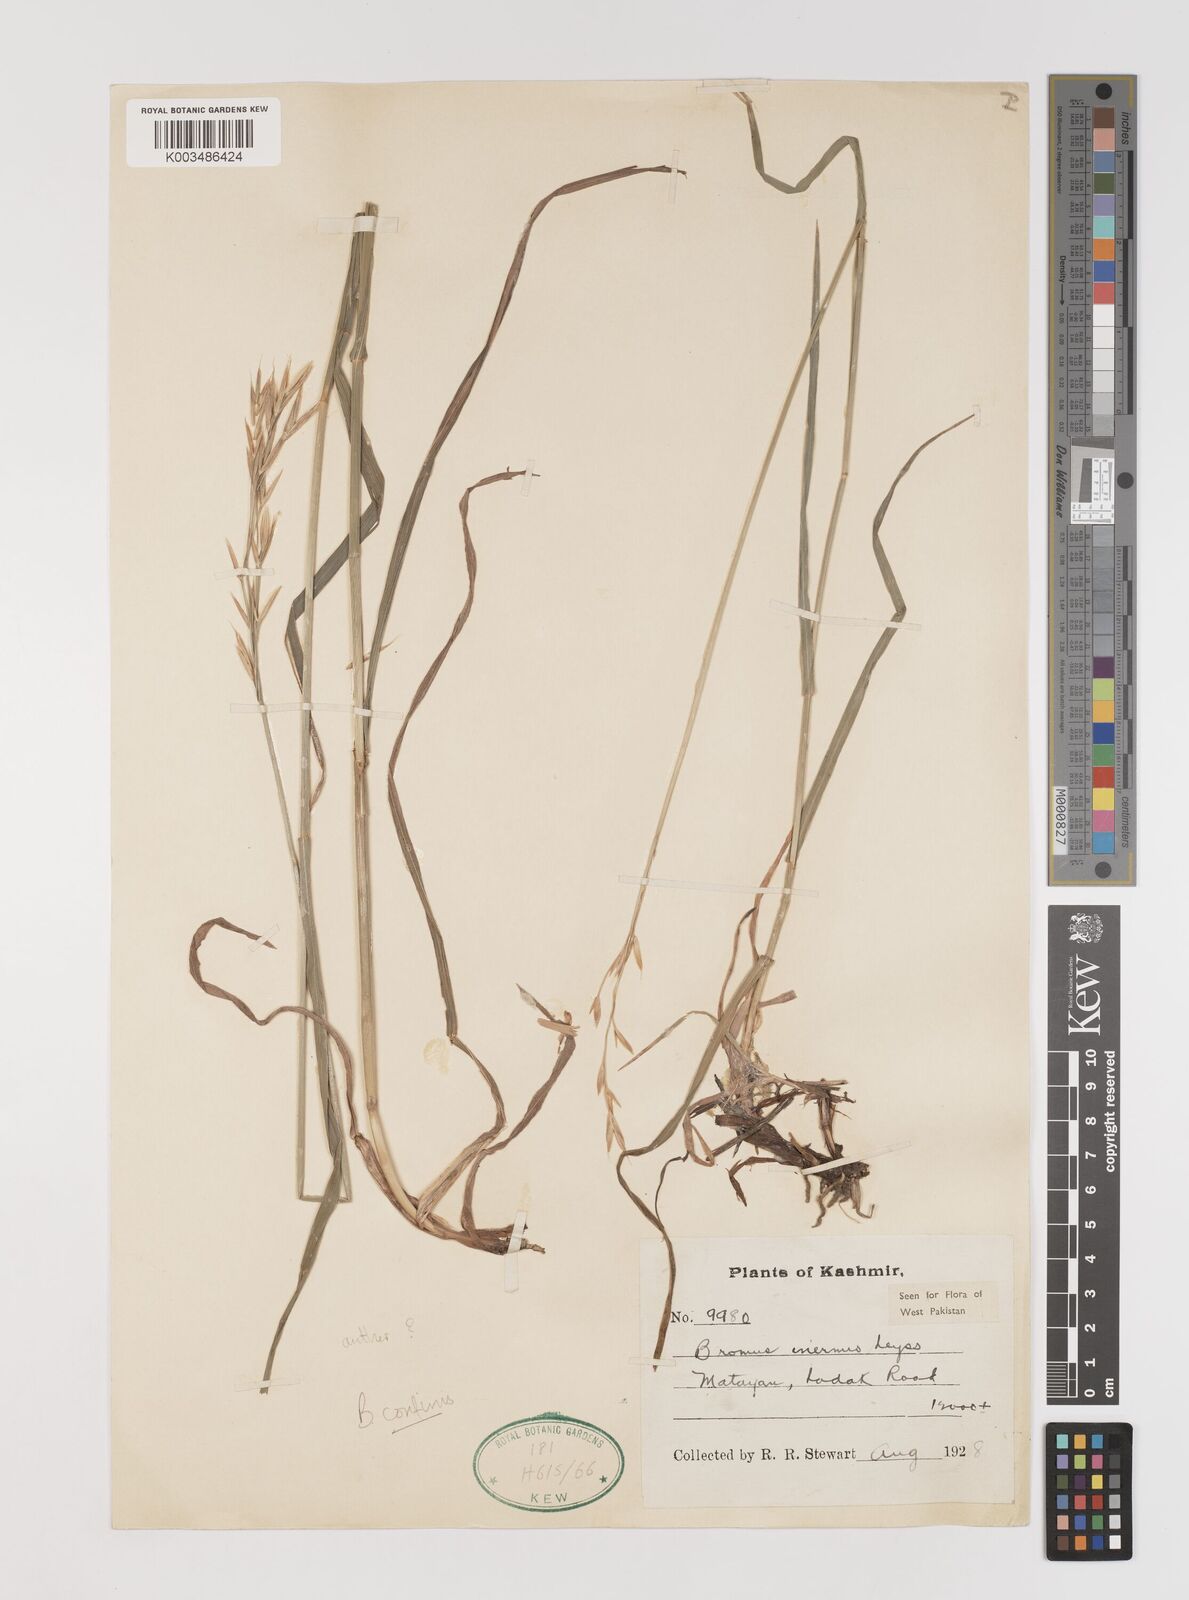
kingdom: Plantae
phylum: Tracheophyta
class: Liliopsida
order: Poales
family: Poaceae
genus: Bromus
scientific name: Bromus confinis
